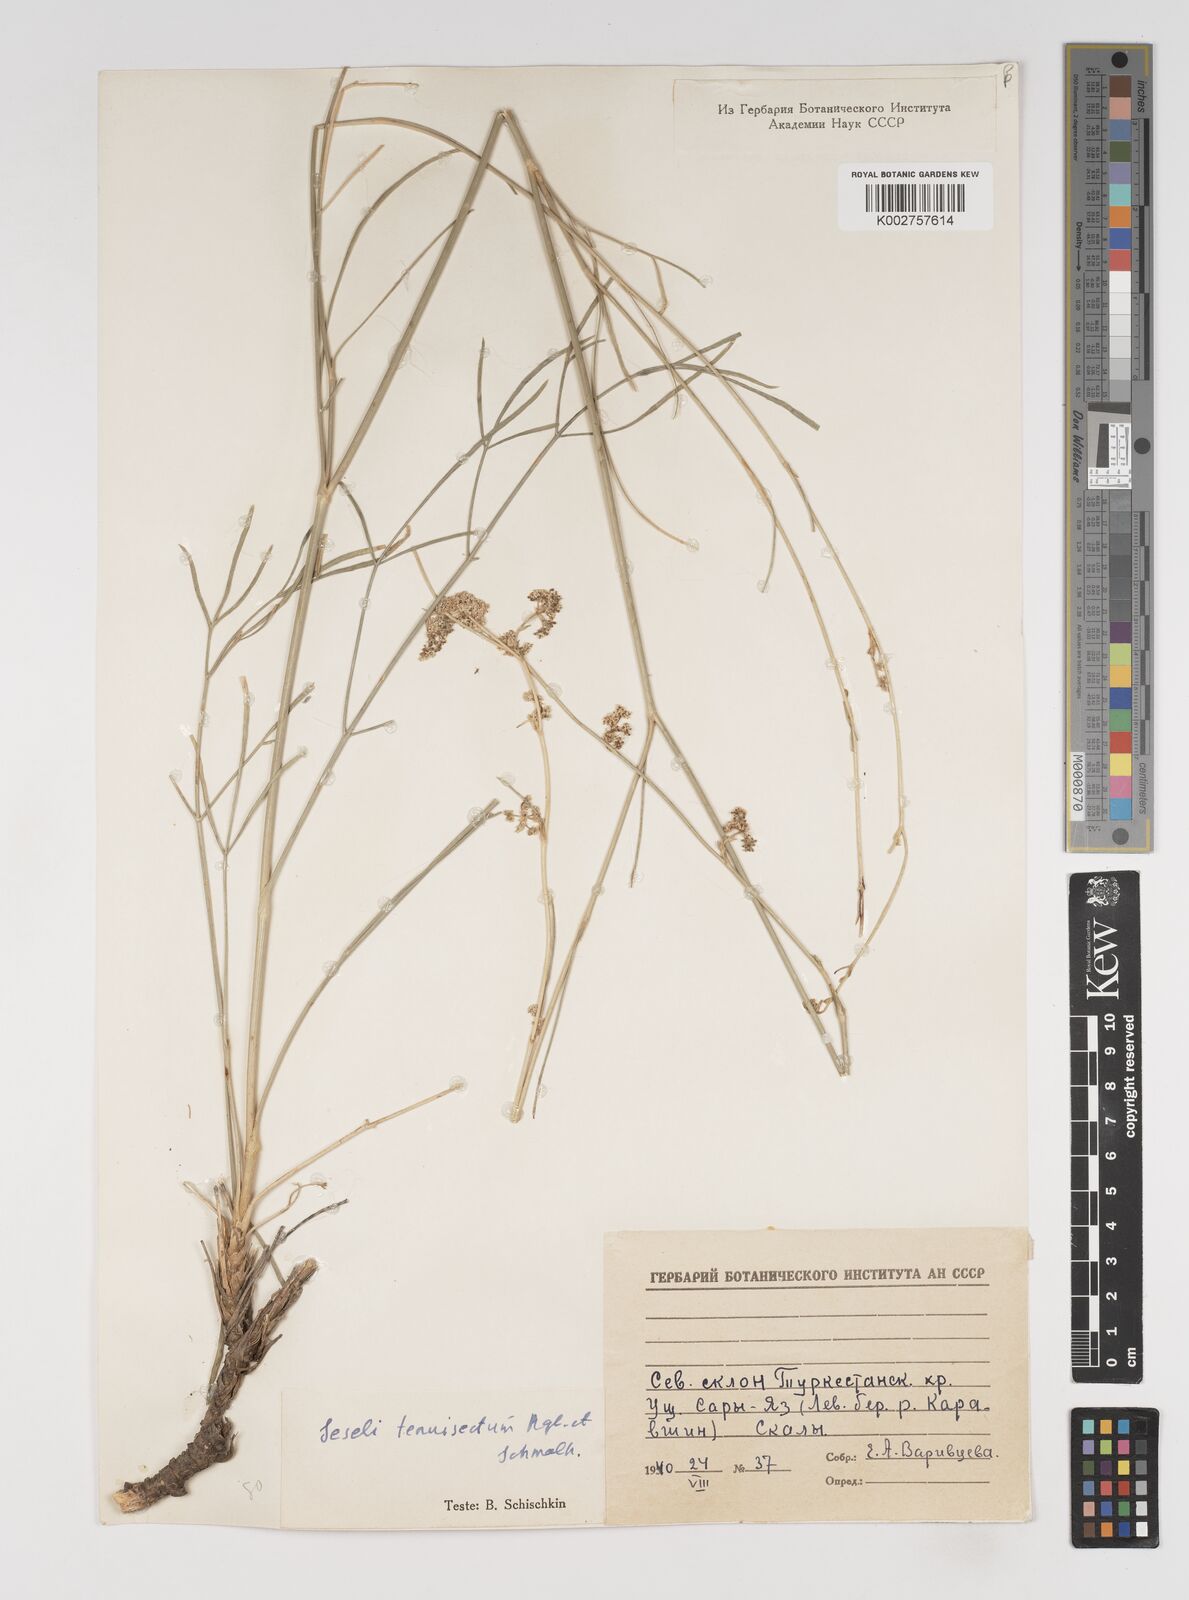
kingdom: Plantae
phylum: Tracheophyta
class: Magnoliopsida
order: Apiales
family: Apiaceae
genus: Seseli
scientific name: Seseli tenuisectum
